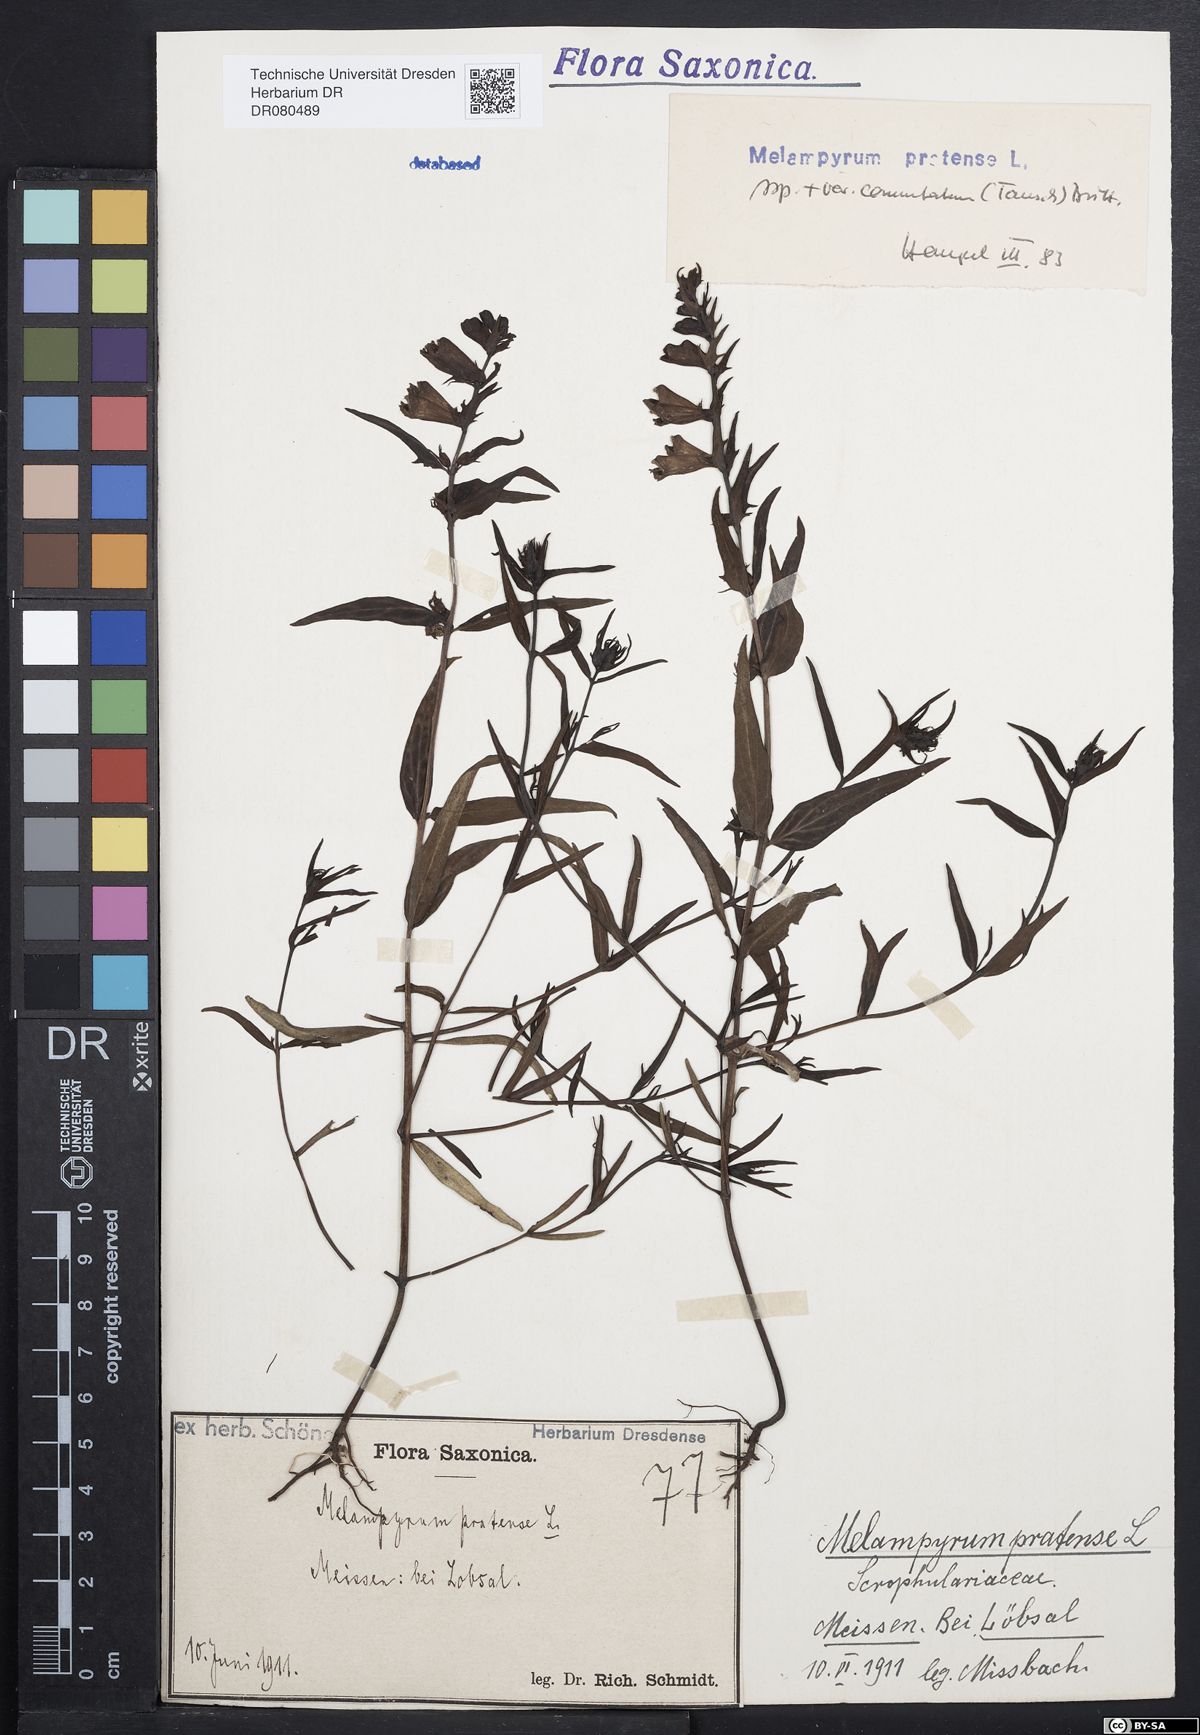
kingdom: Plantae
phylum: Tracheophyta
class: Magnoliopsida
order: Lamiales
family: Orobanchaceae
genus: Melampyrum
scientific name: Melampyrum pratense
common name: Common cow-wheat
